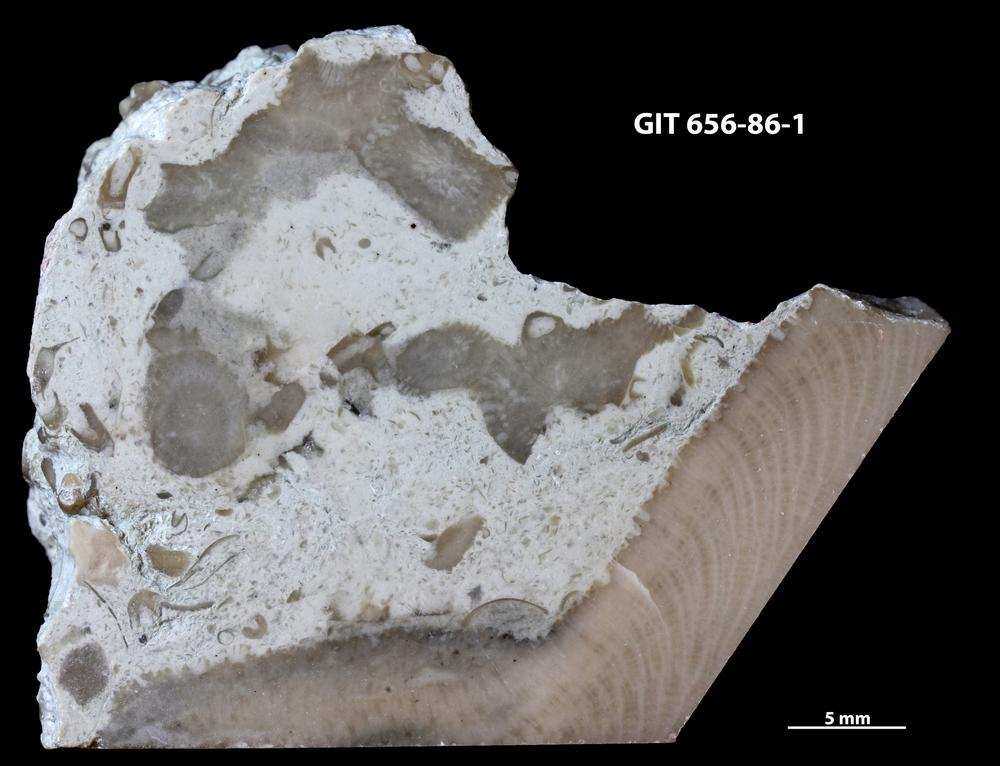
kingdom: Animalia
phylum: Cnidaria
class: Anthozoa
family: Theciidae
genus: Laceripora
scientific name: Laceripora
